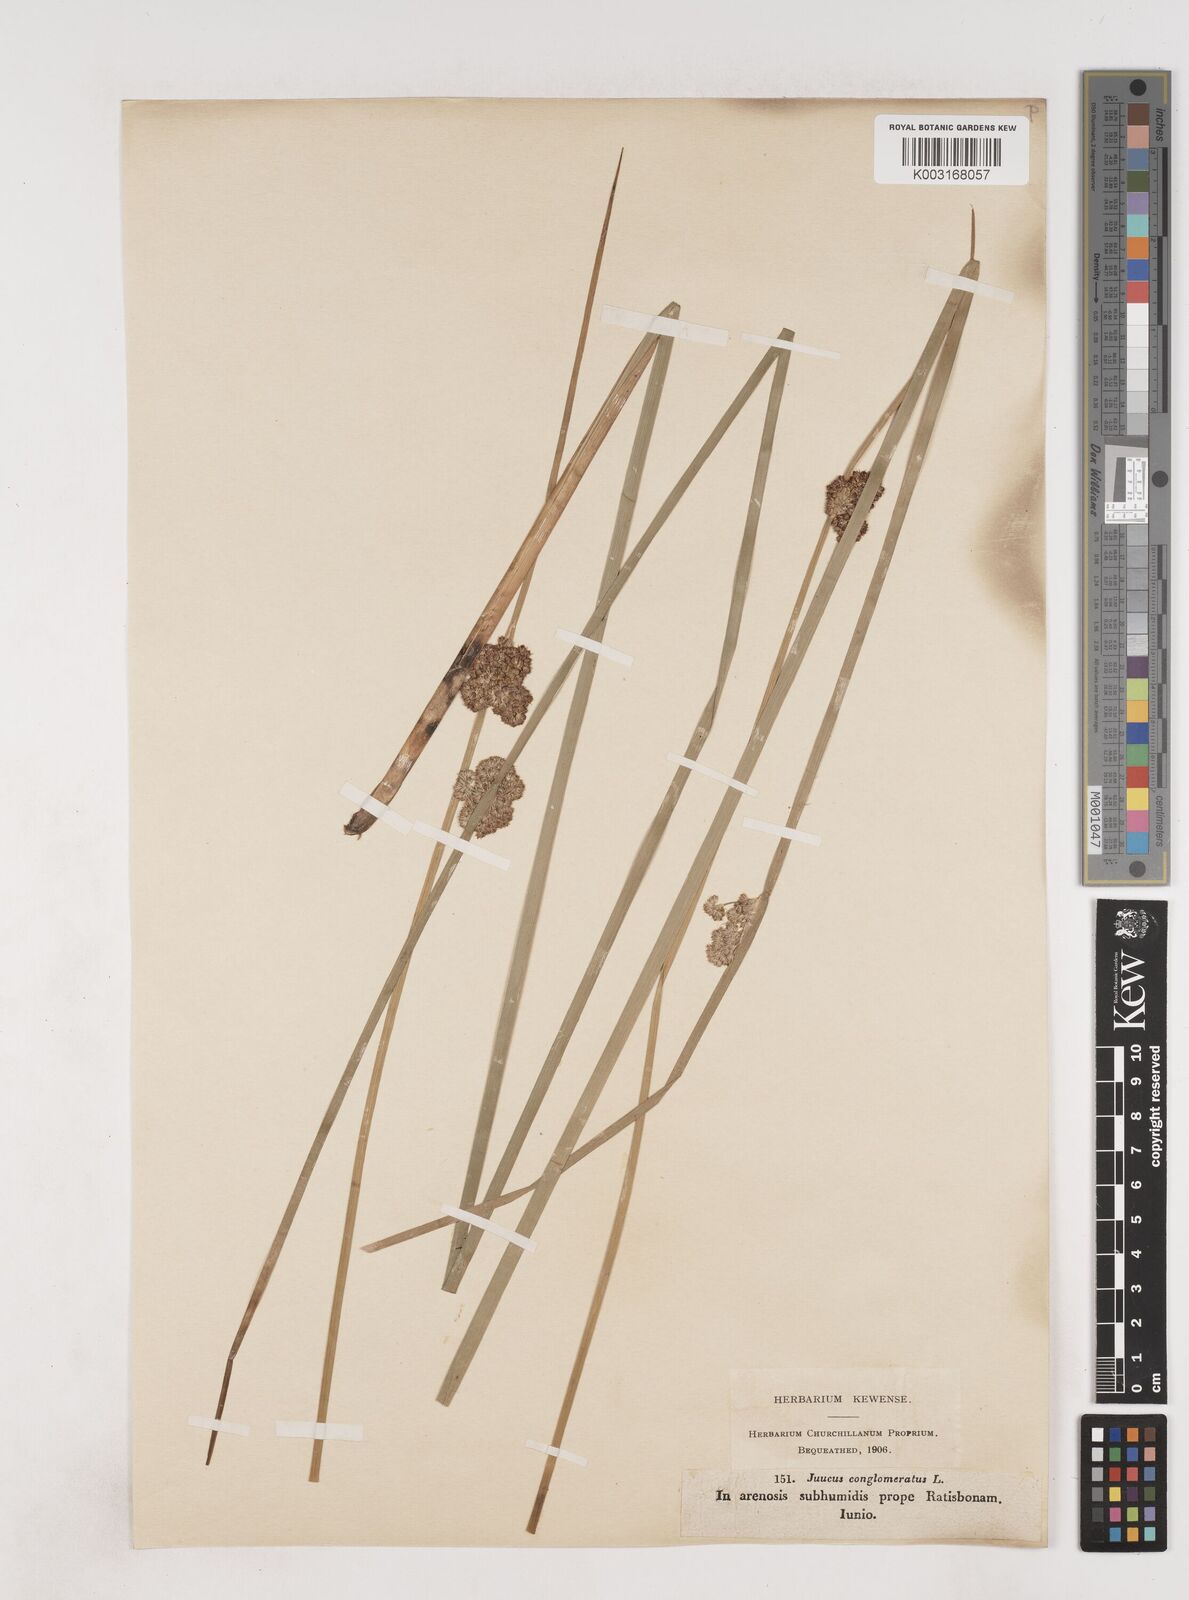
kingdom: Plantae
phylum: Tracheophyta
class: Liliopsida
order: Poales
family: Juncaceae
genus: Juncus
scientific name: Juncus conglomeratus
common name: Compact rush
